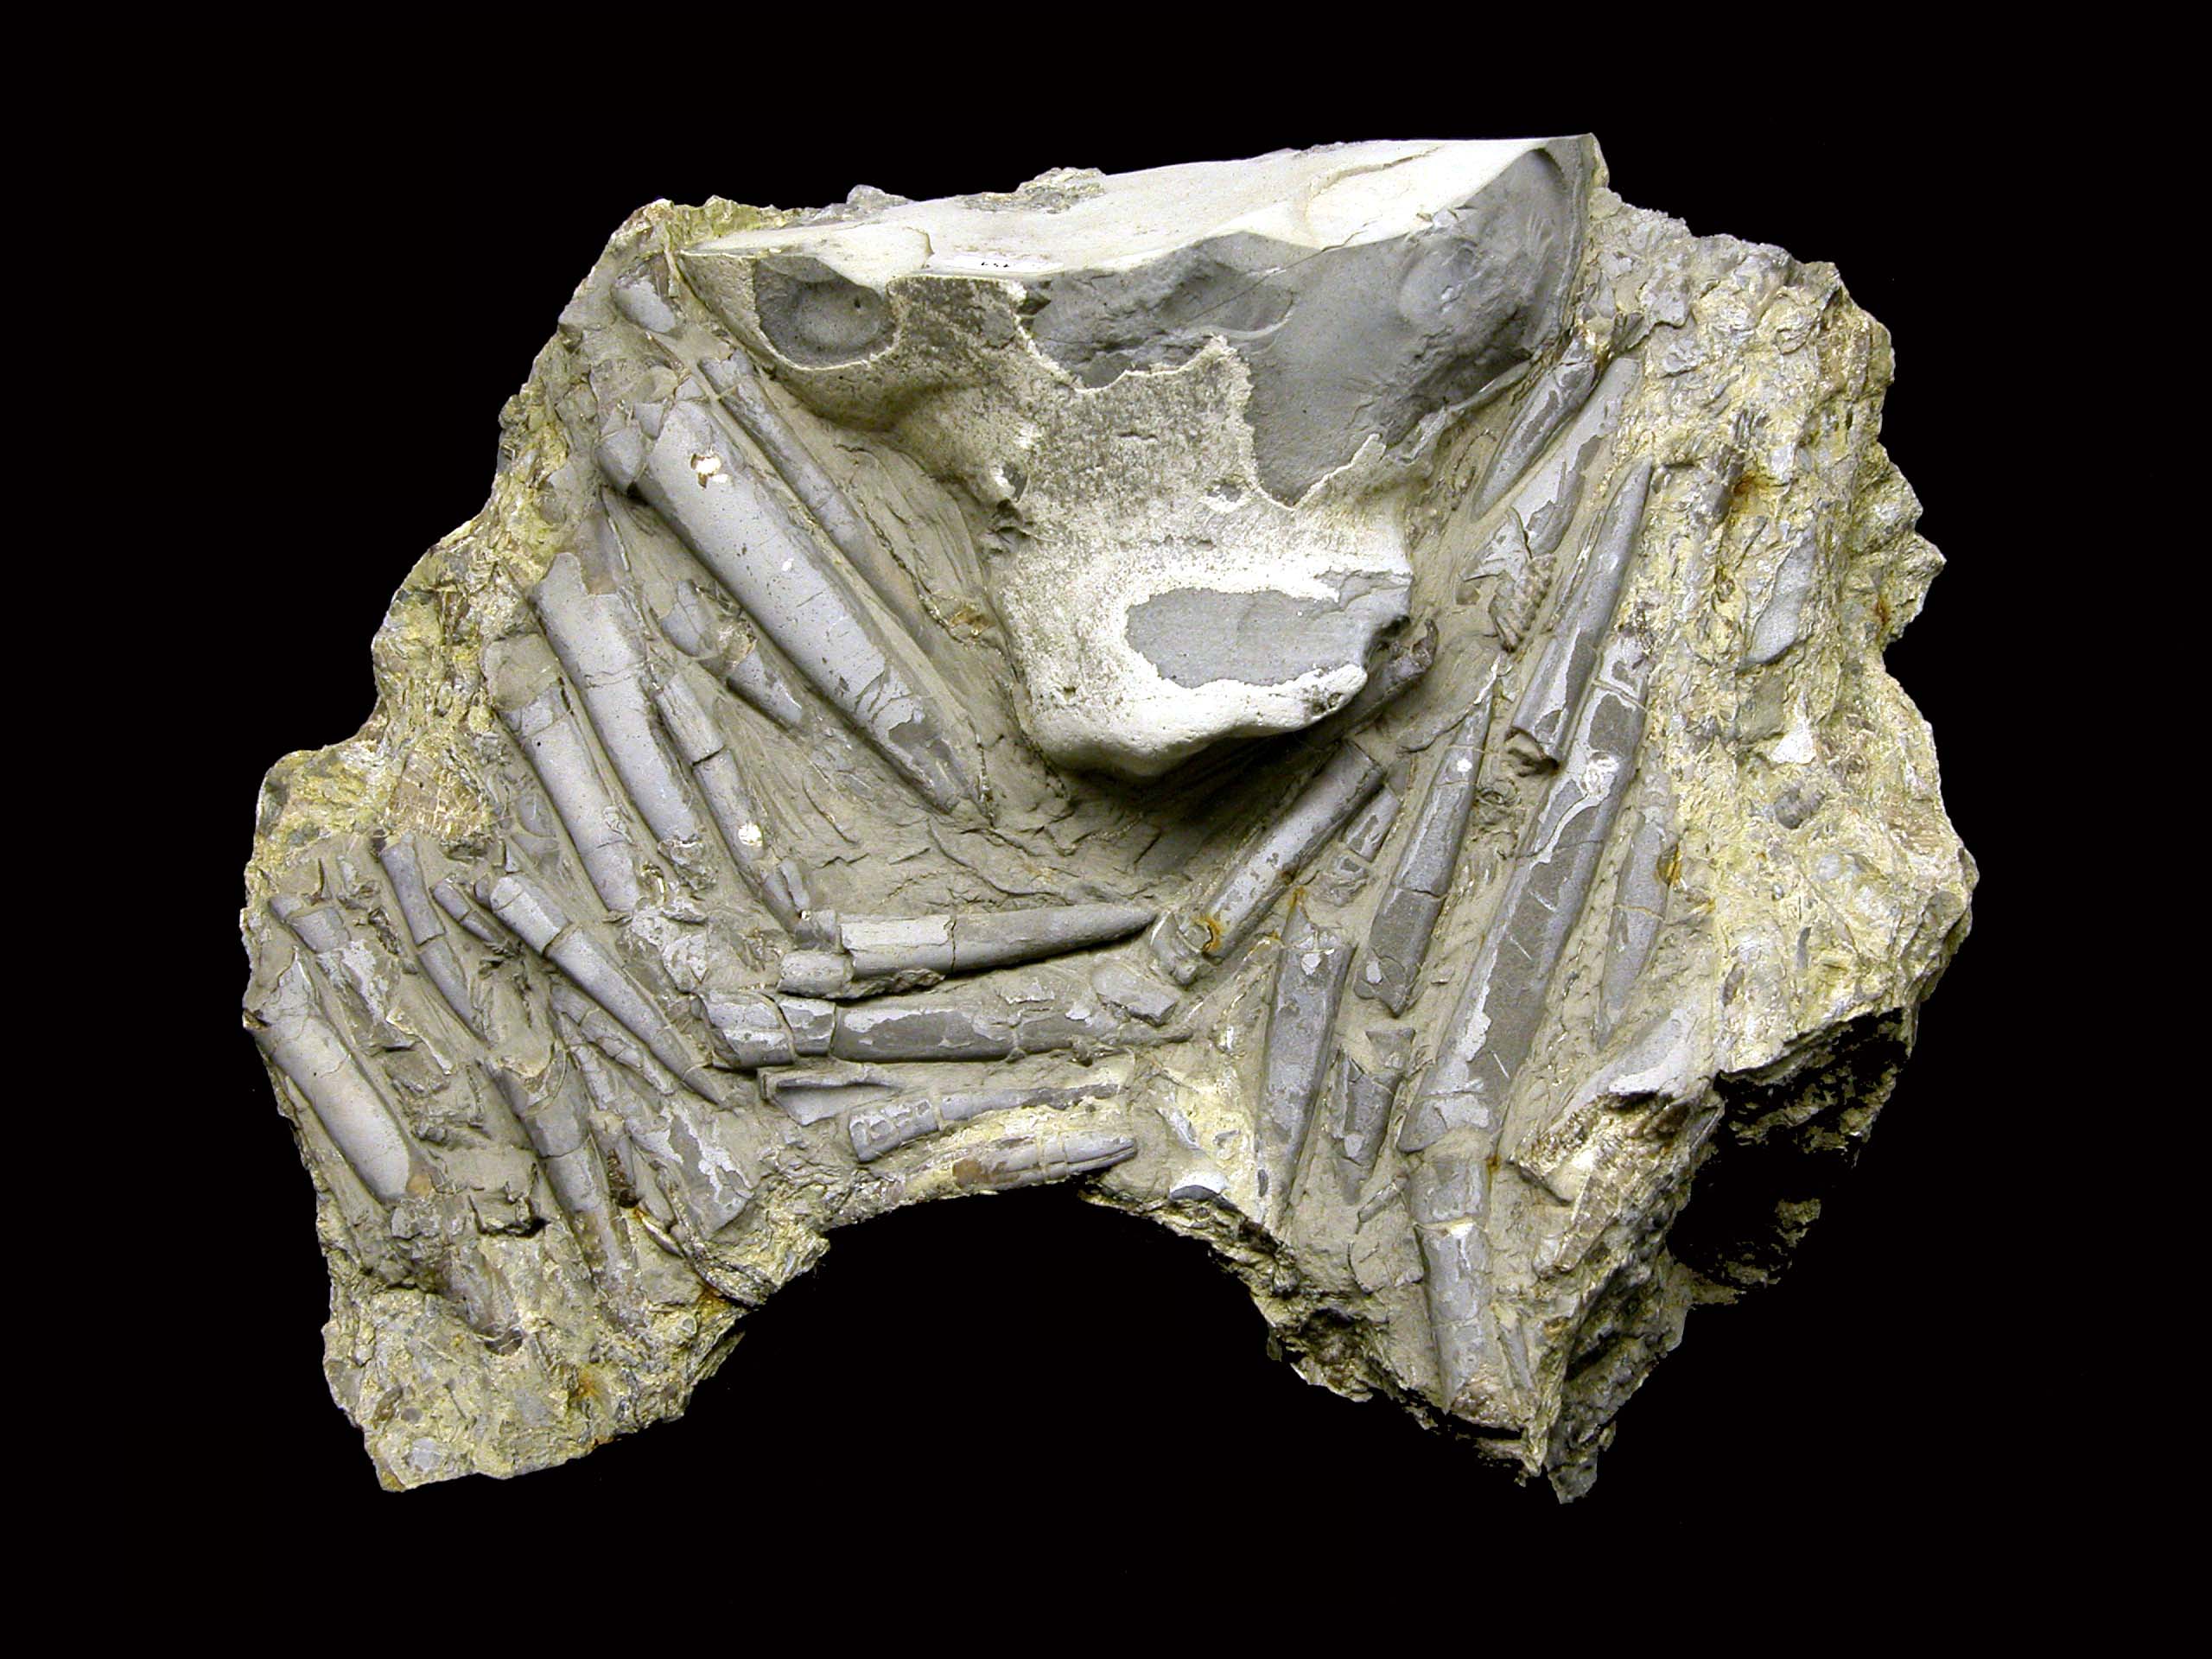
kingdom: Animalia
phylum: Mollusca
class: Cephalopoda
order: Belemnitida
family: Megateuthididae
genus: Acrocoelites
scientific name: Acrocoelites
